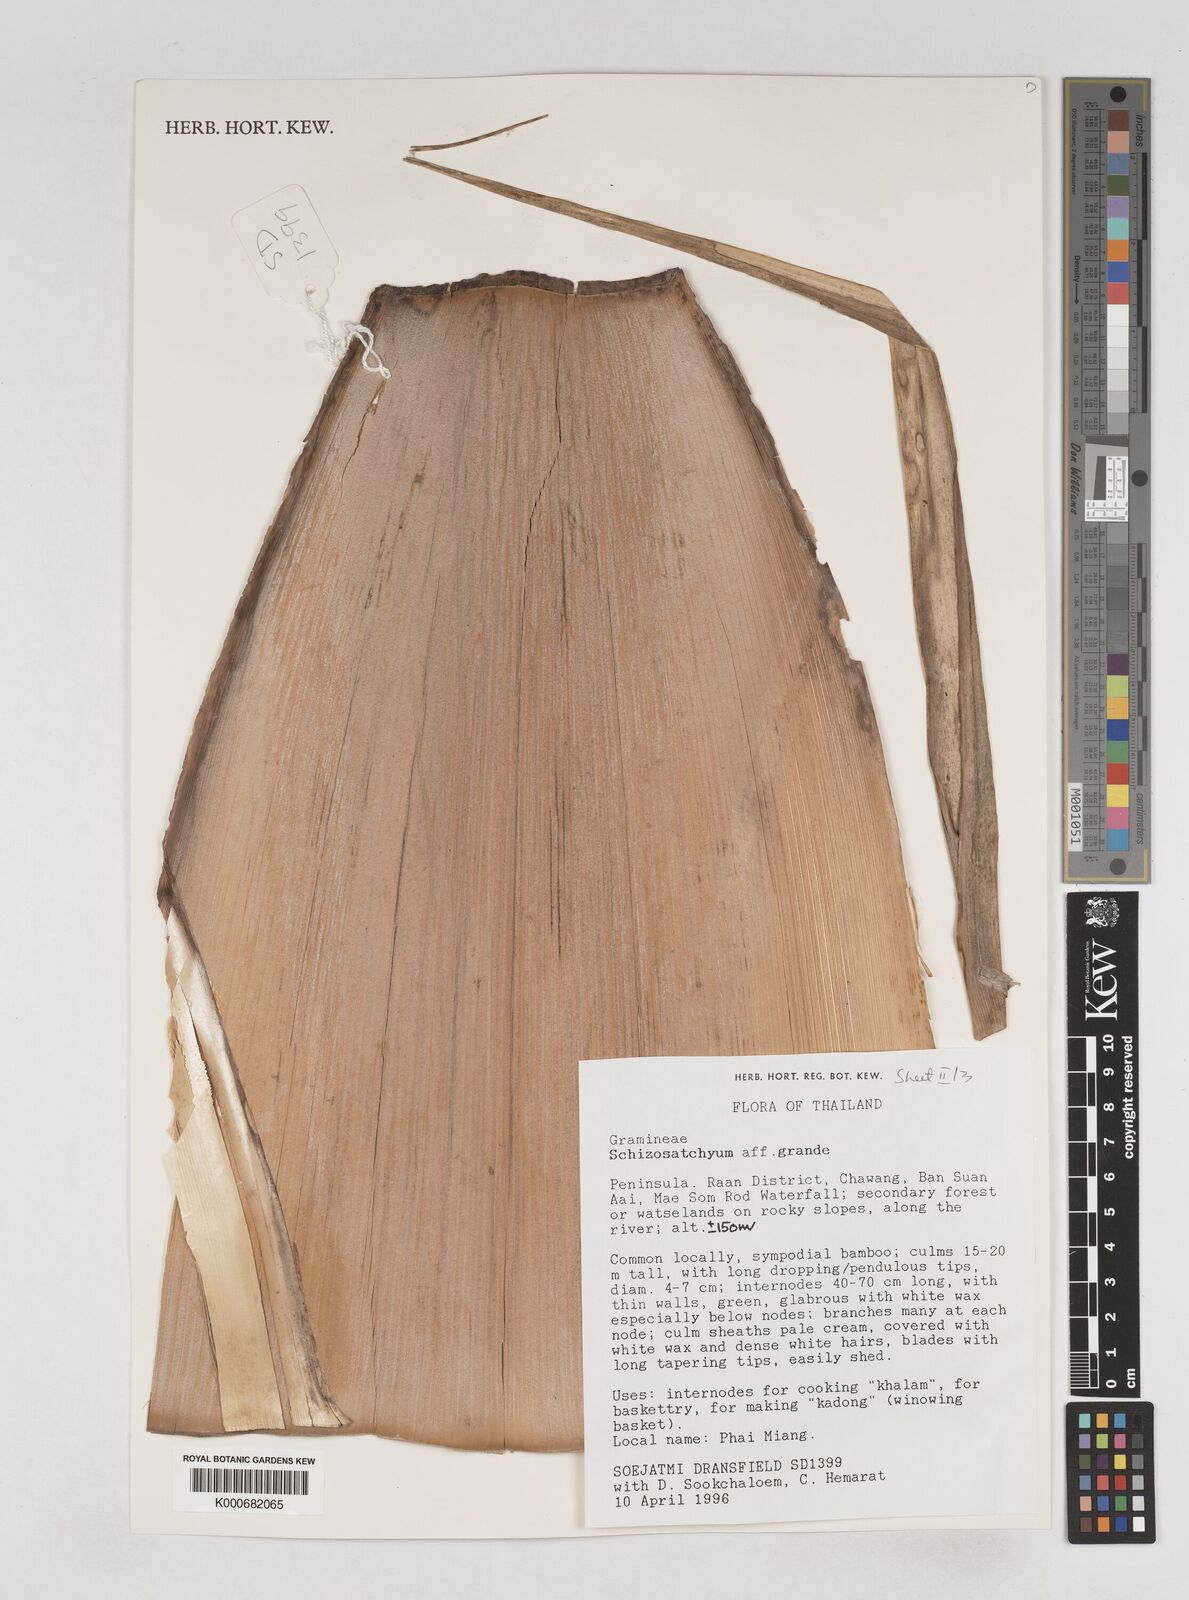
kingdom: Plantae
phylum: Tracheophyta
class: Liliopsida
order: Poales
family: Poaceae
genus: Schizostachyum
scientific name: Schizostachyum grande
